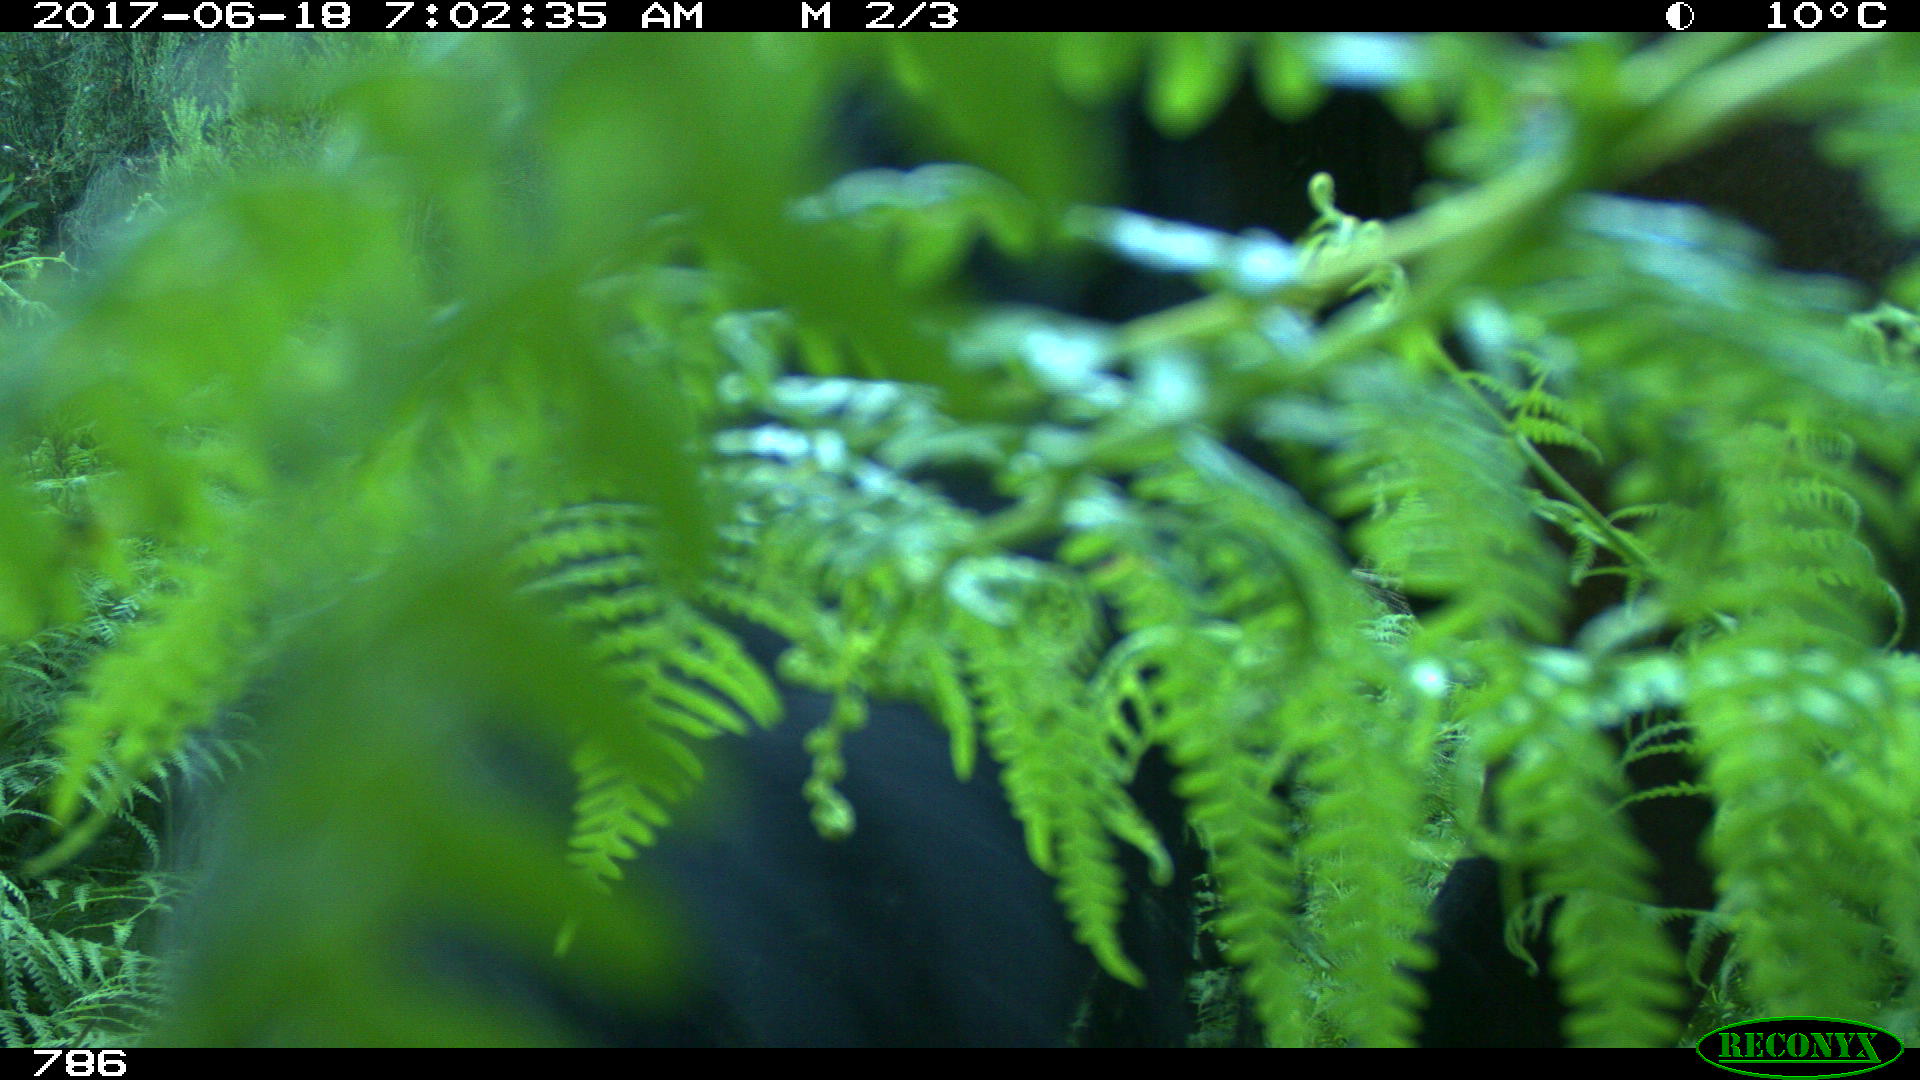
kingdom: Animalia
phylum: Chordata
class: Mammalia
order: Perissodactyla
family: Equidae
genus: Equus
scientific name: Equus caballus
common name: Horse
